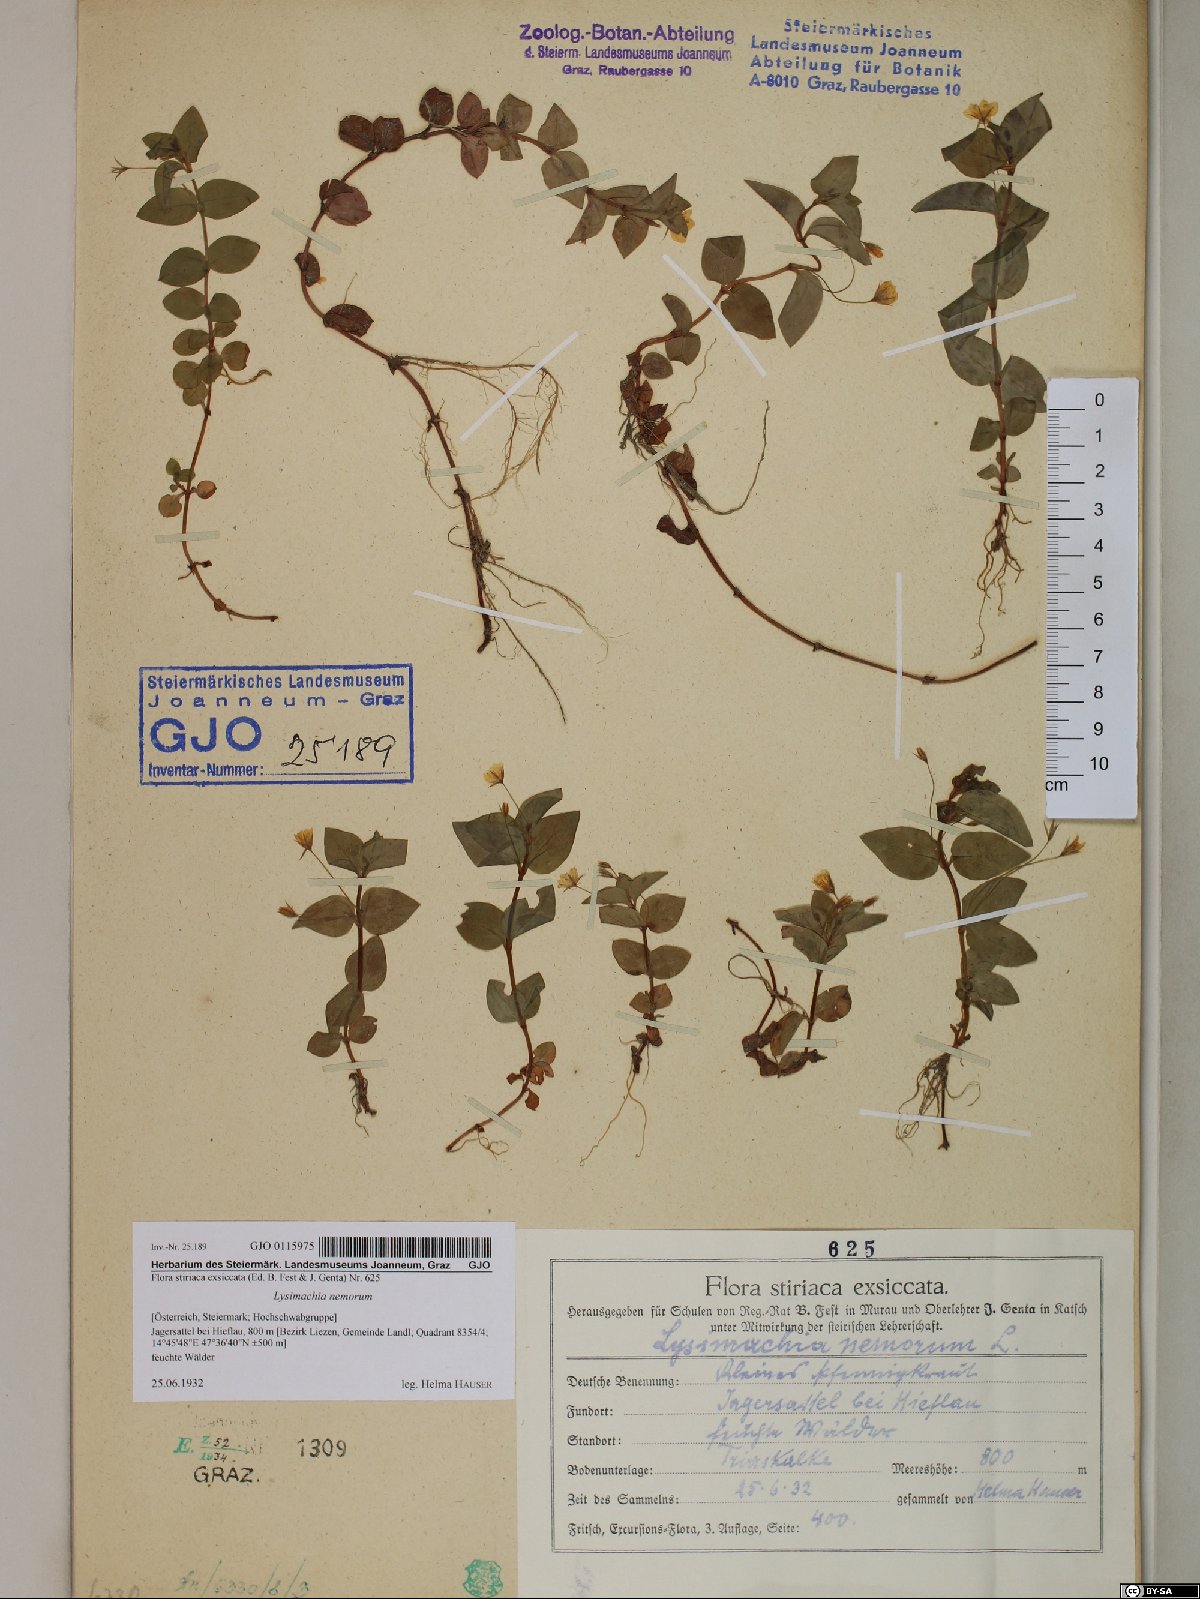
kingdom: Plantae
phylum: Tracheophyta
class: Magnoliopsida
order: Ericales
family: Primulaceae
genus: Lysimachia
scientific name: Lysimachia nemorum
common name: Yellow pimpernel
